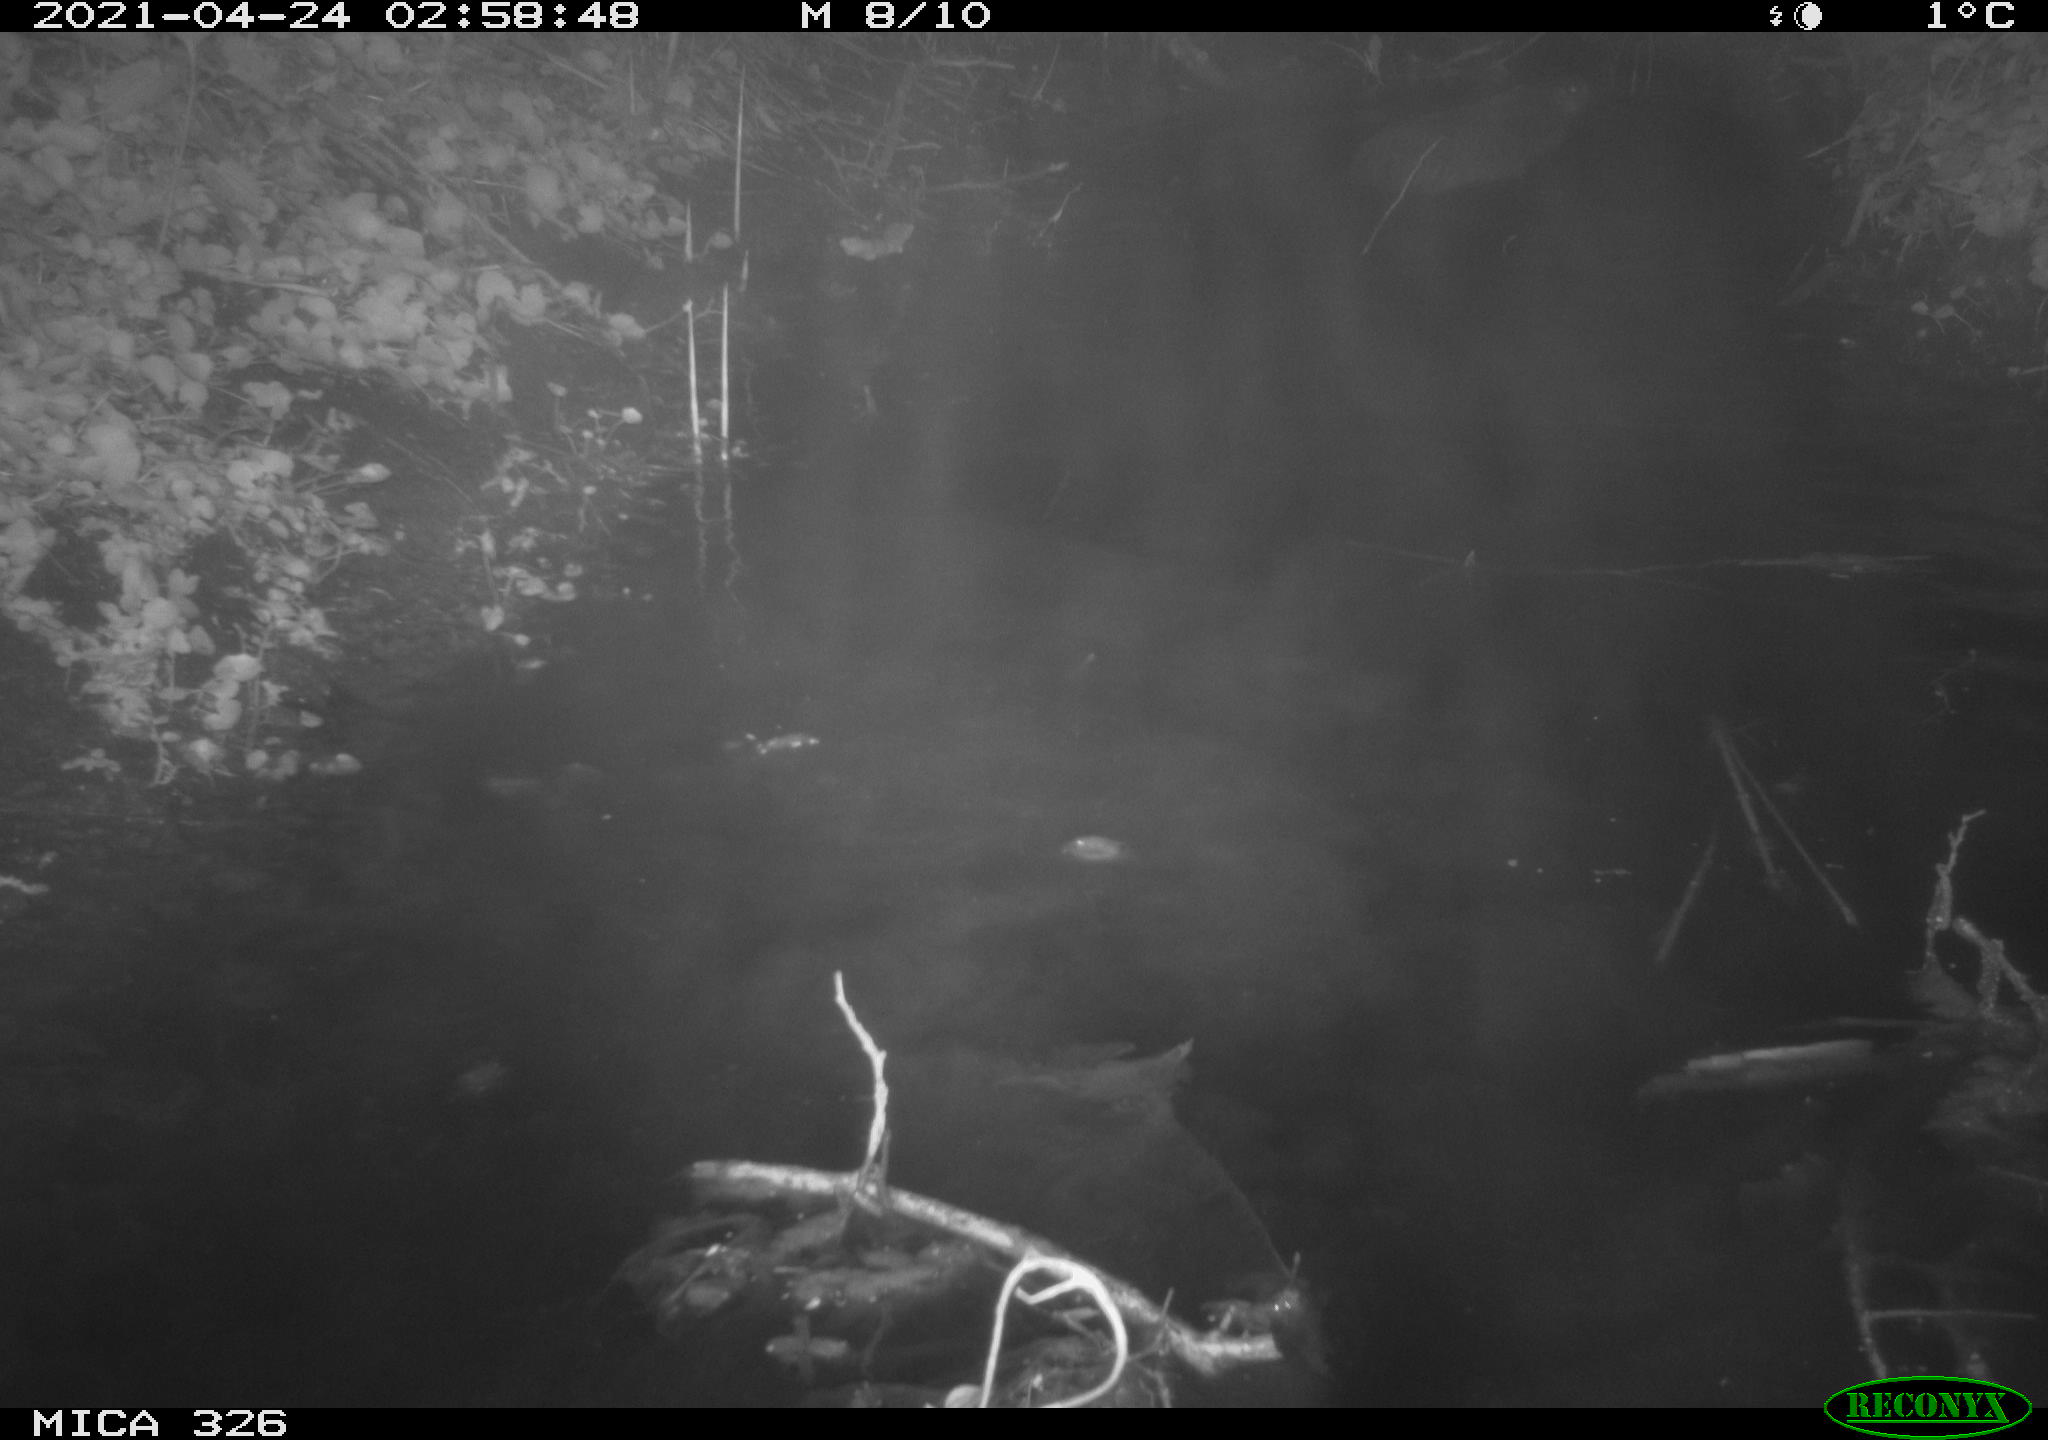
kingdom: Animalia
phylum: Chordata
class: Mammalia
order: Rodentia
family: Myocastoridae
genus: Myocastor
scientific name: Myocastor coypus
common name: Coypu
